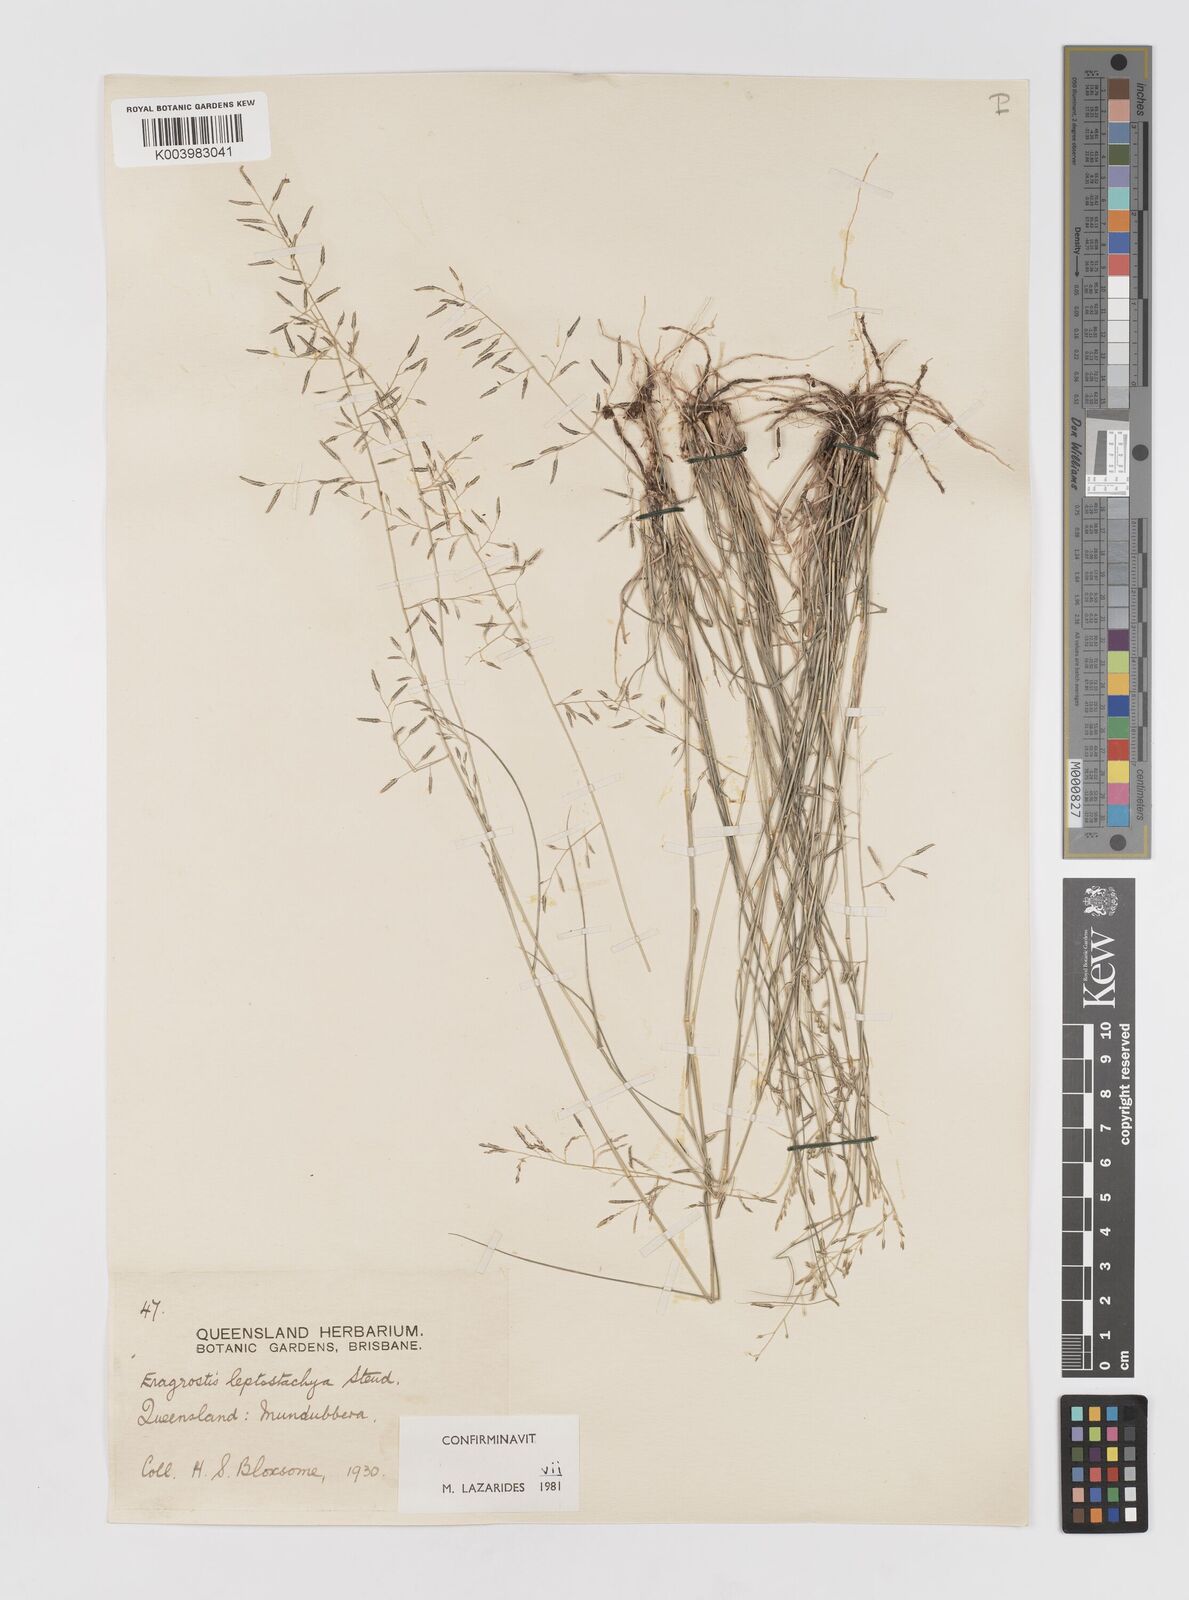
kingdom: Plantae
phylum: Tracheophyta
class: Liliopsida
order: Poales
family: Poaceae
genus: Eragrostis
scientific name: Eragrostis leptostachya
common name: Australian lovegrass
